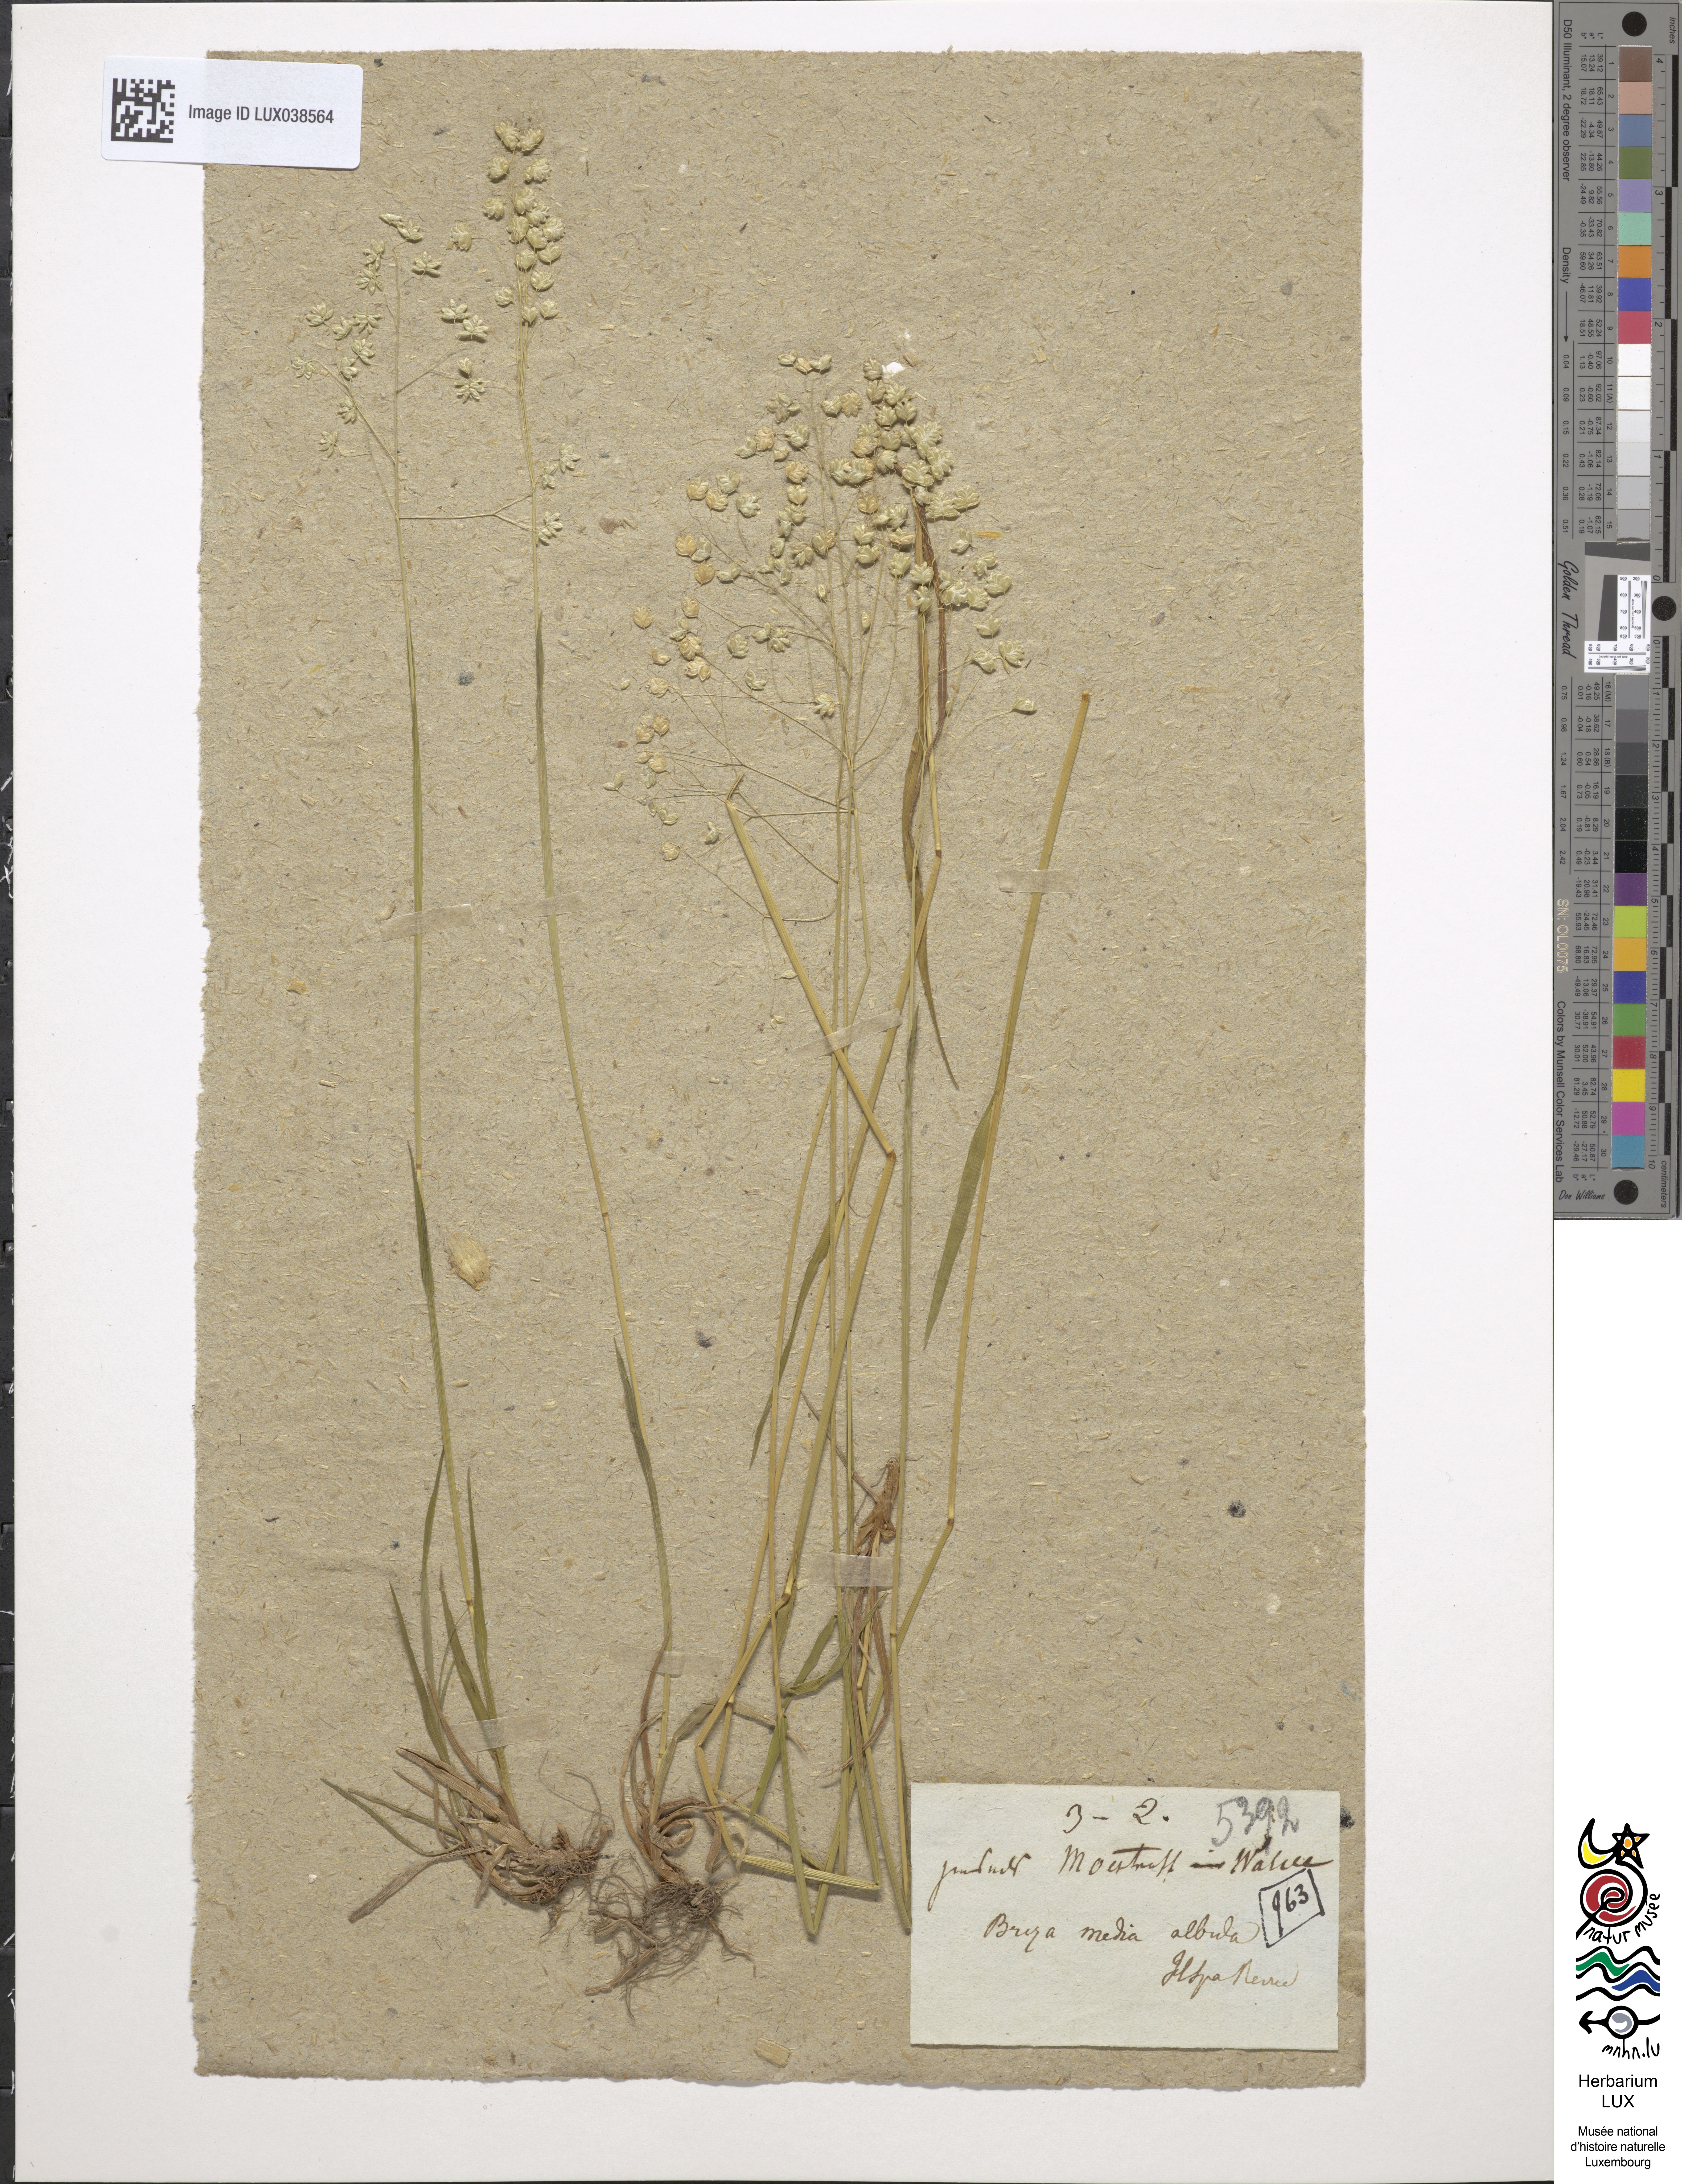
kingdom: Plantae
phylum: Tracheophyta
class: Liliopsida
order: Poales
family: Poaceae
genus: Briza
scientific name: Briza media
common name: Quaking grass
